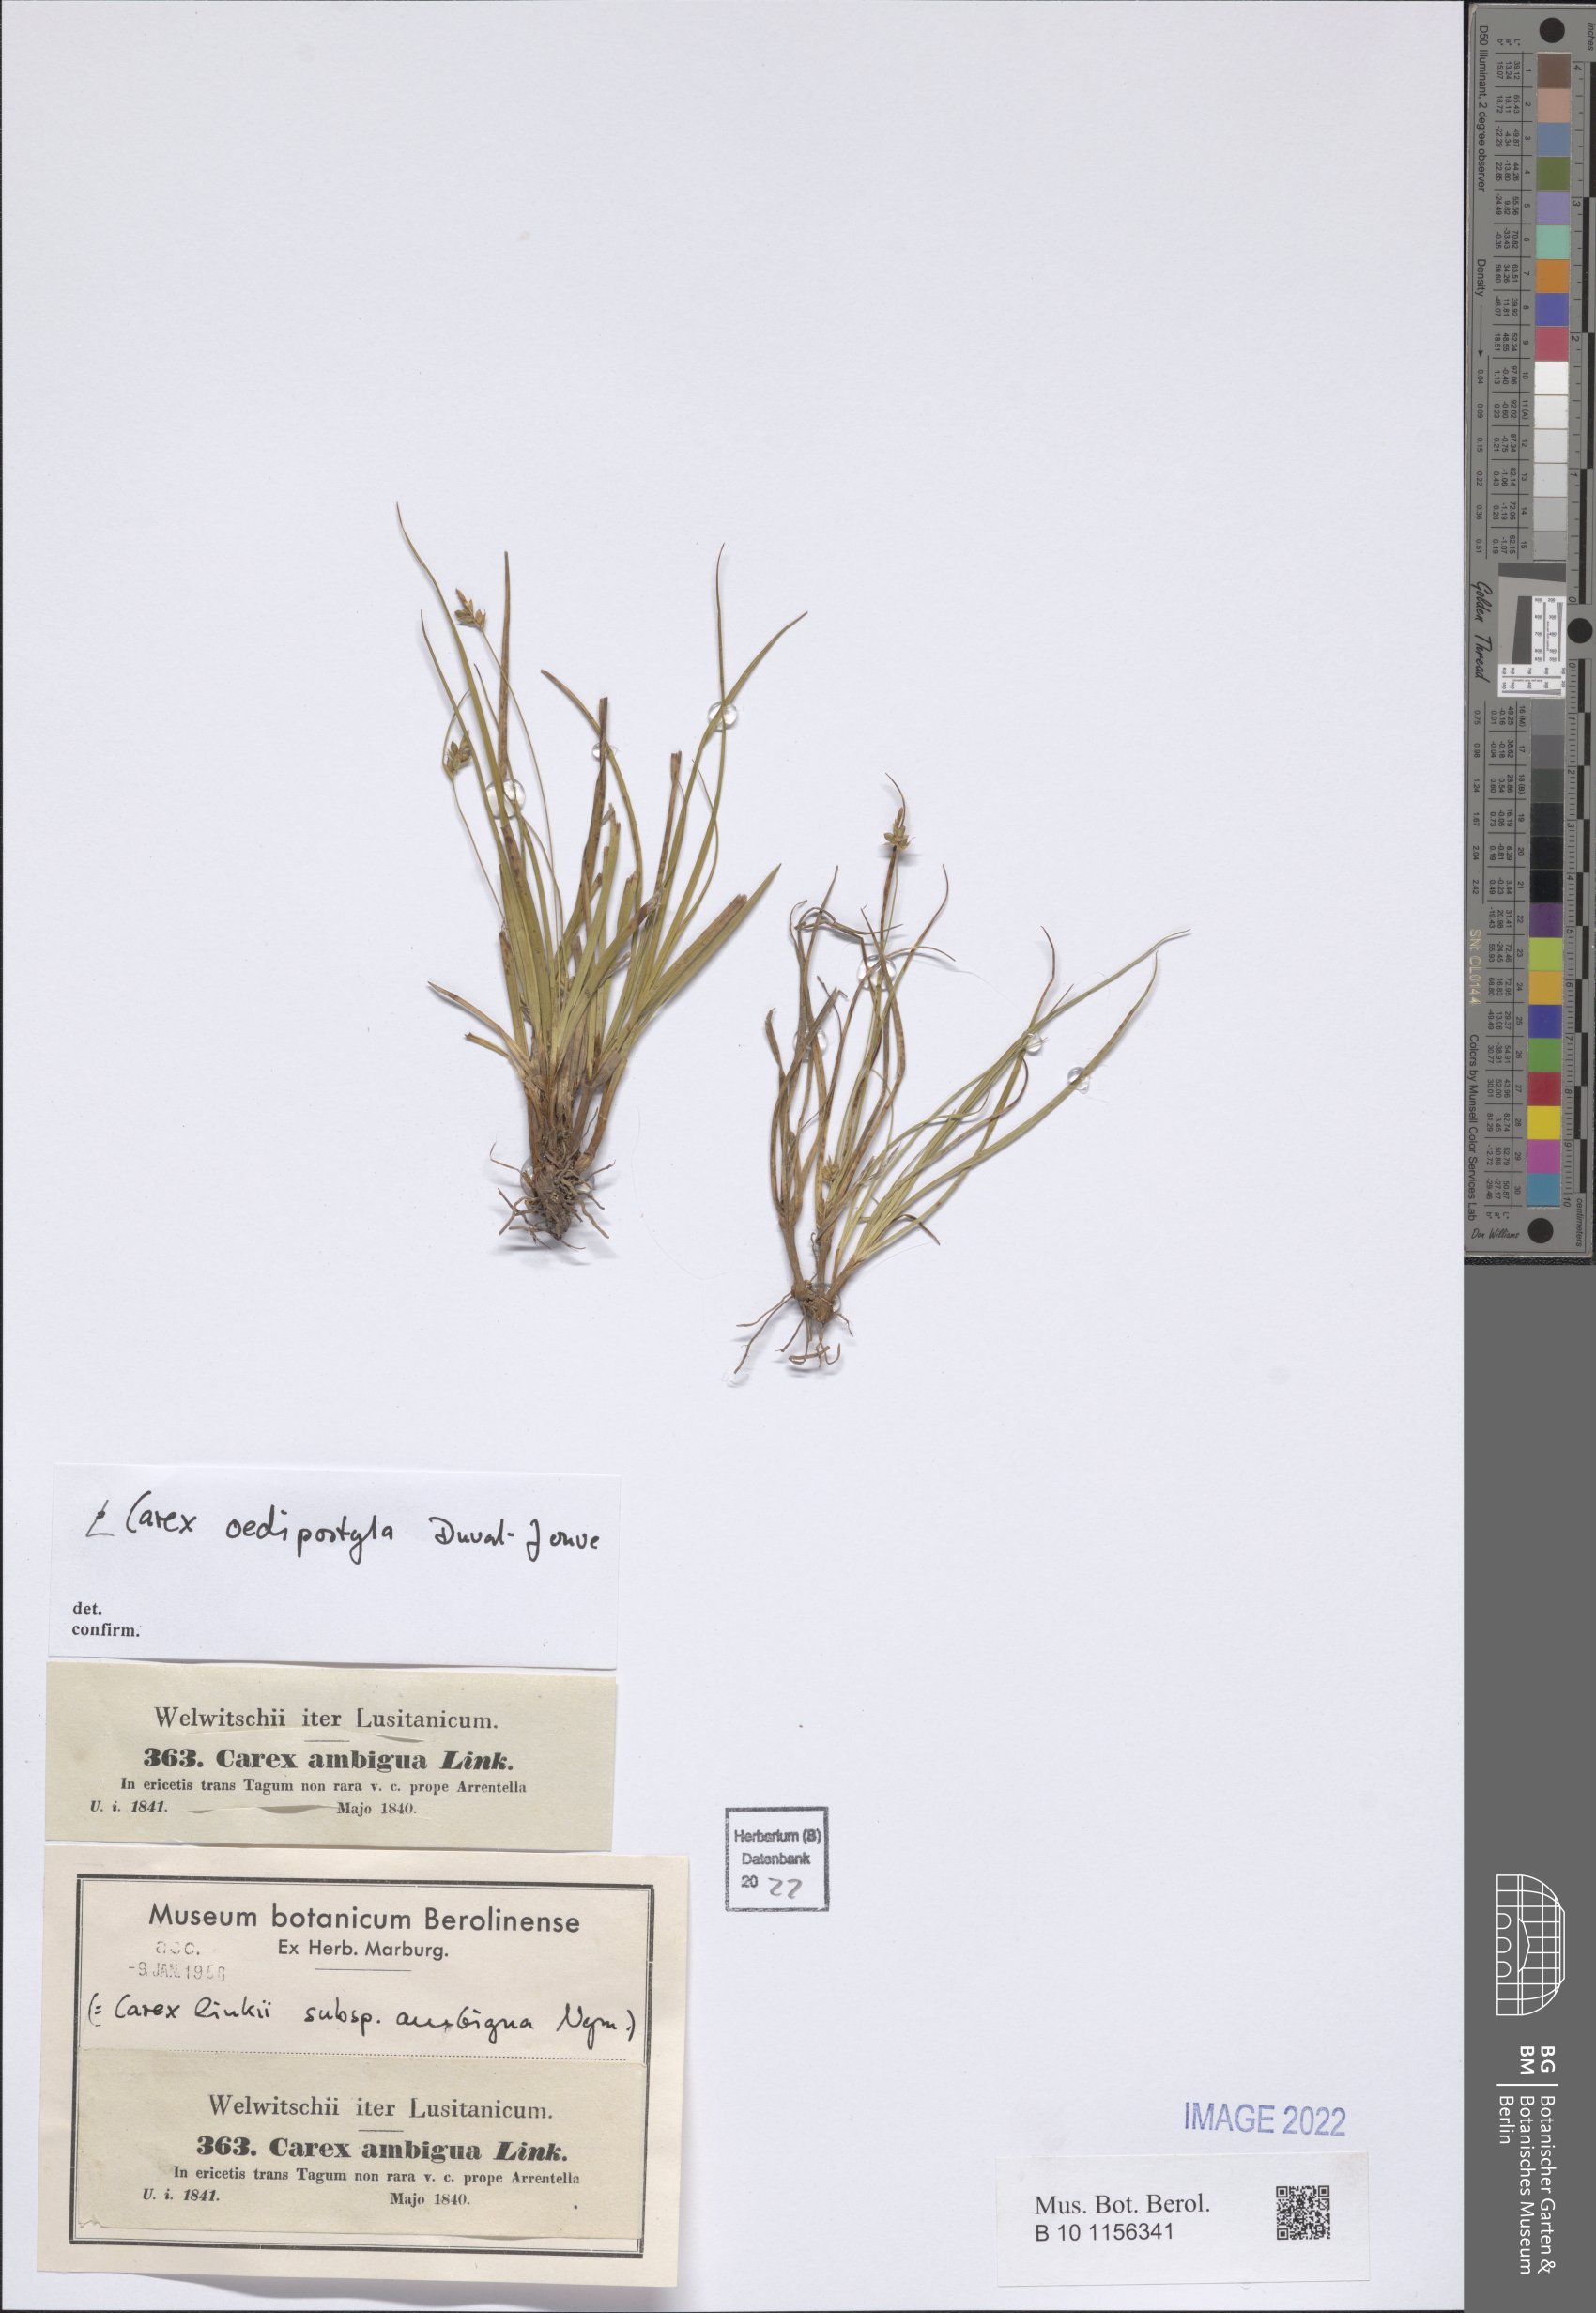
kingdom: Plantae
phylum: Tracheophyta
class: Liliopsida
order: Poales
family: Cyperaceae
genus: Carex
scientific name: Carex oedipostyla
